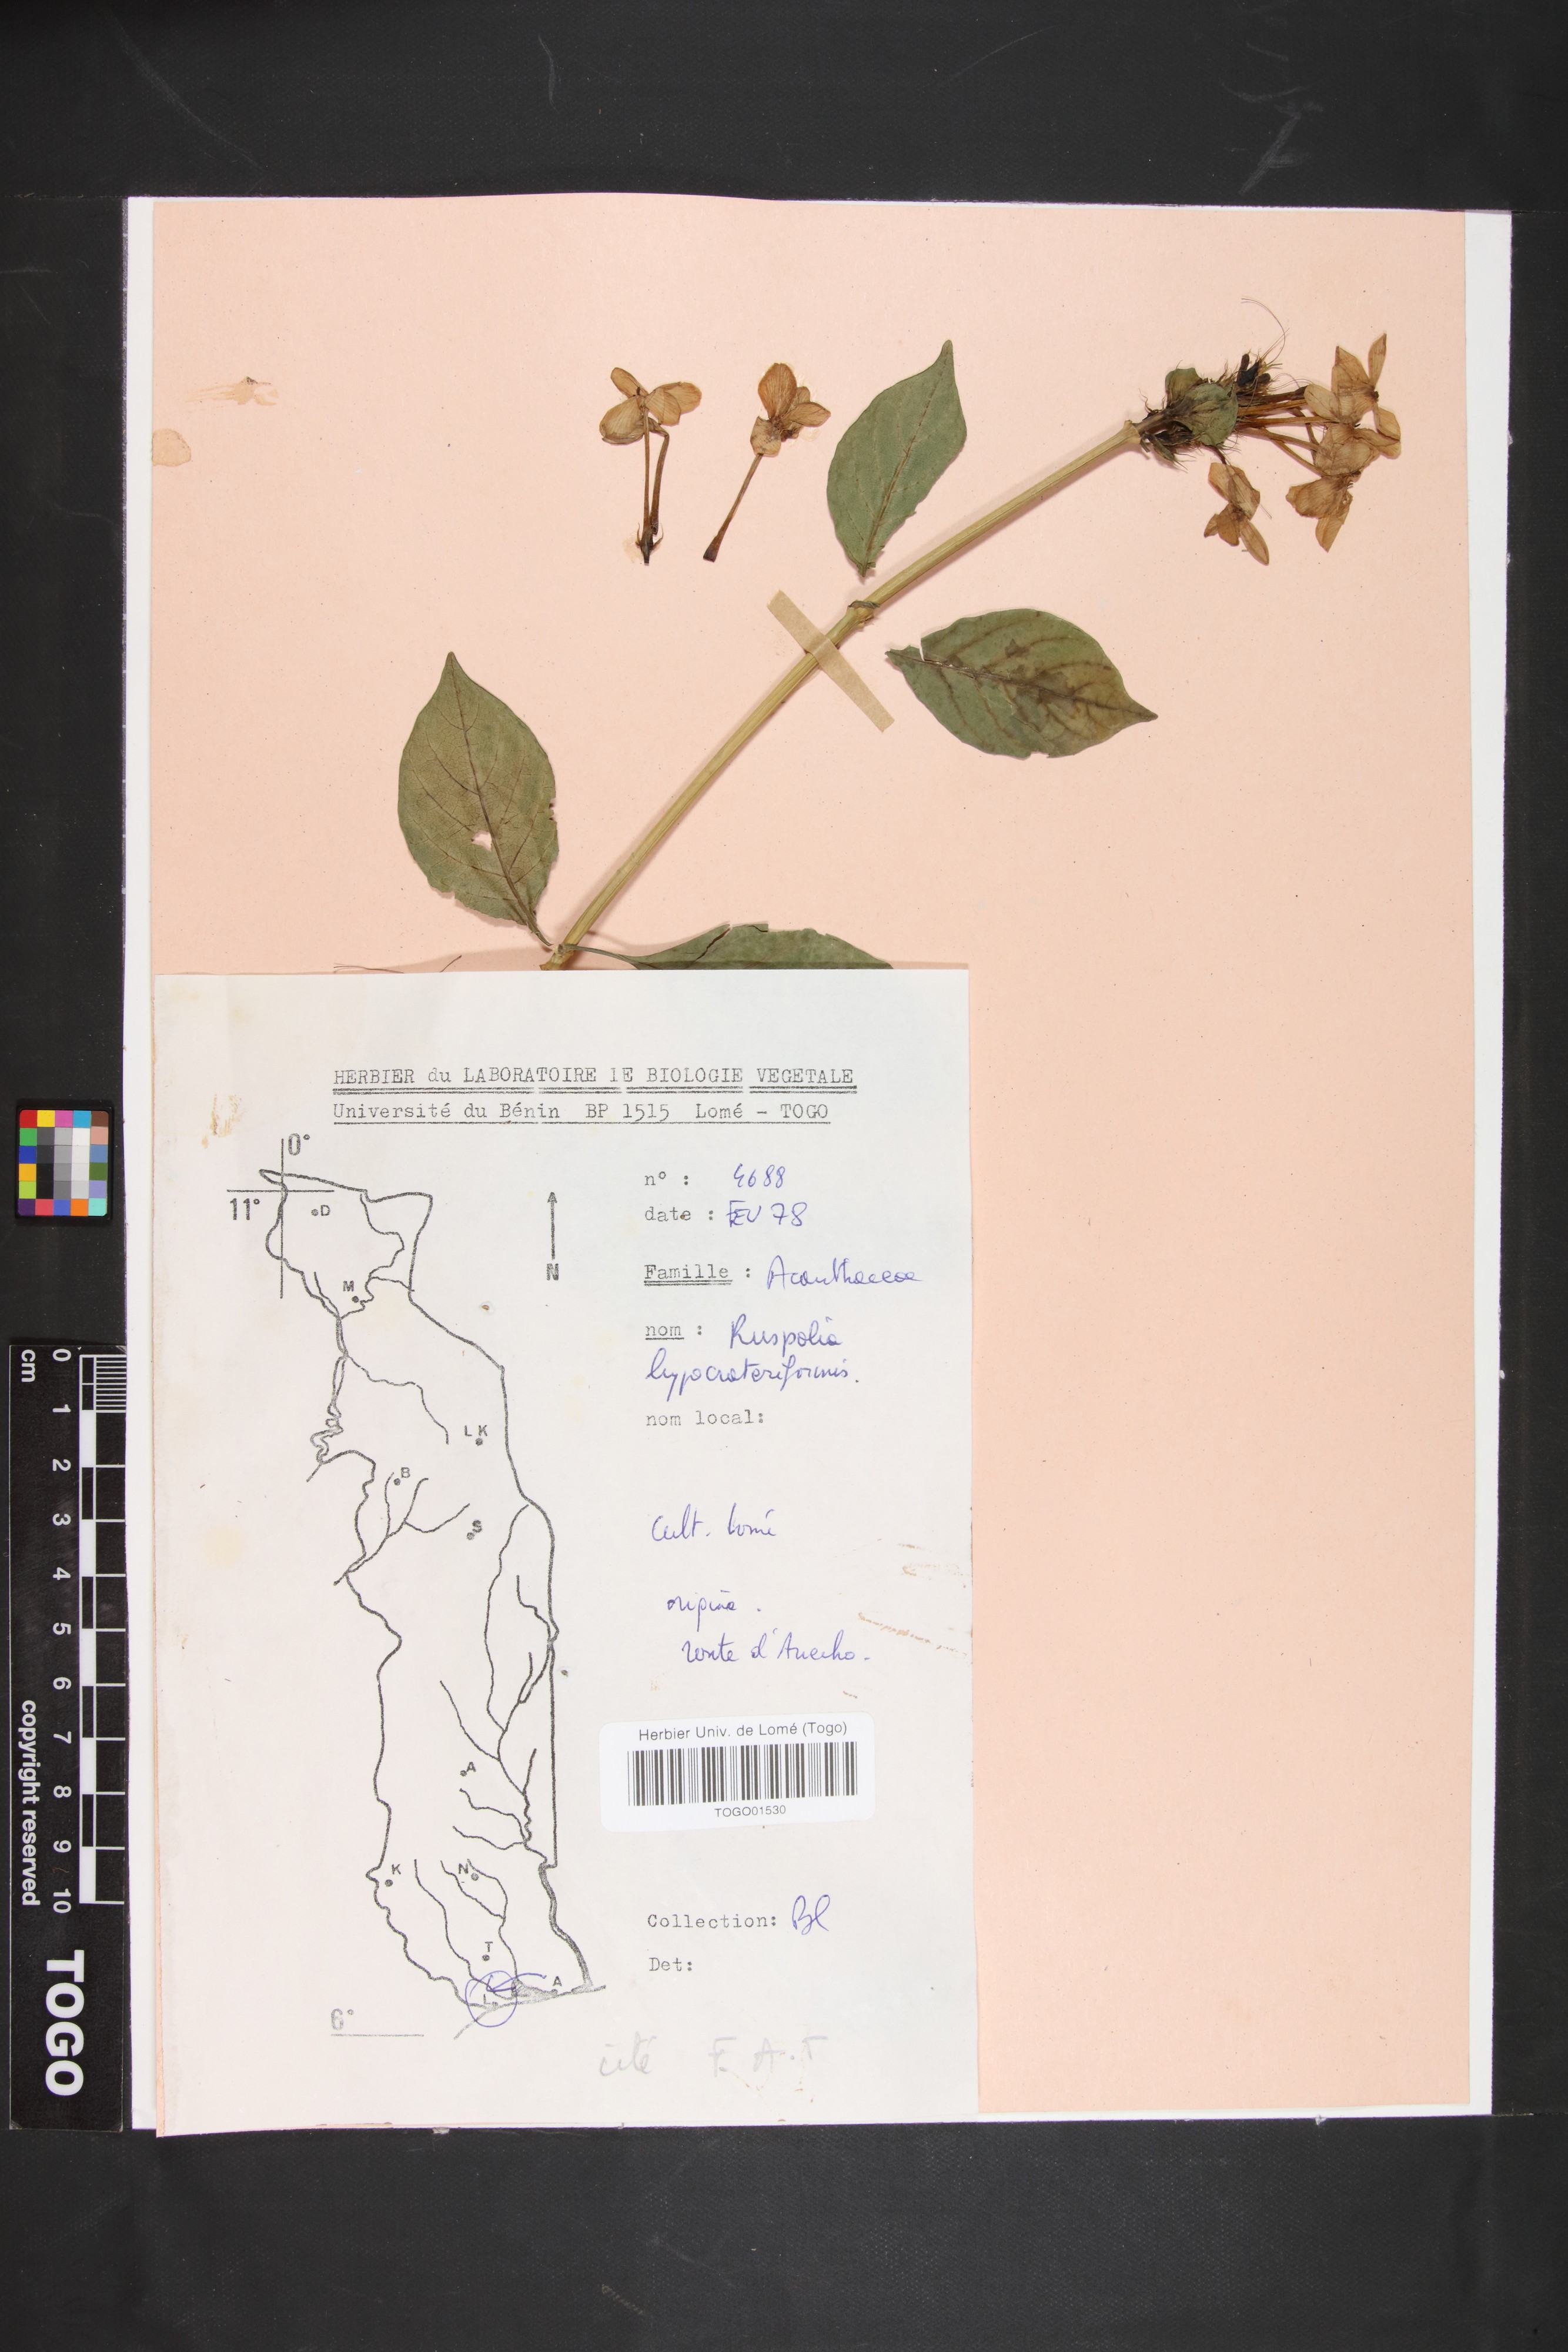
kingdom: Plantae
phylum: Tracheophyta
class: Magnoliopsida
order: Lamiales
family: Acanthaceae
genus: Ruspolia
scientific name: Ruspolia hypocrateriformis
